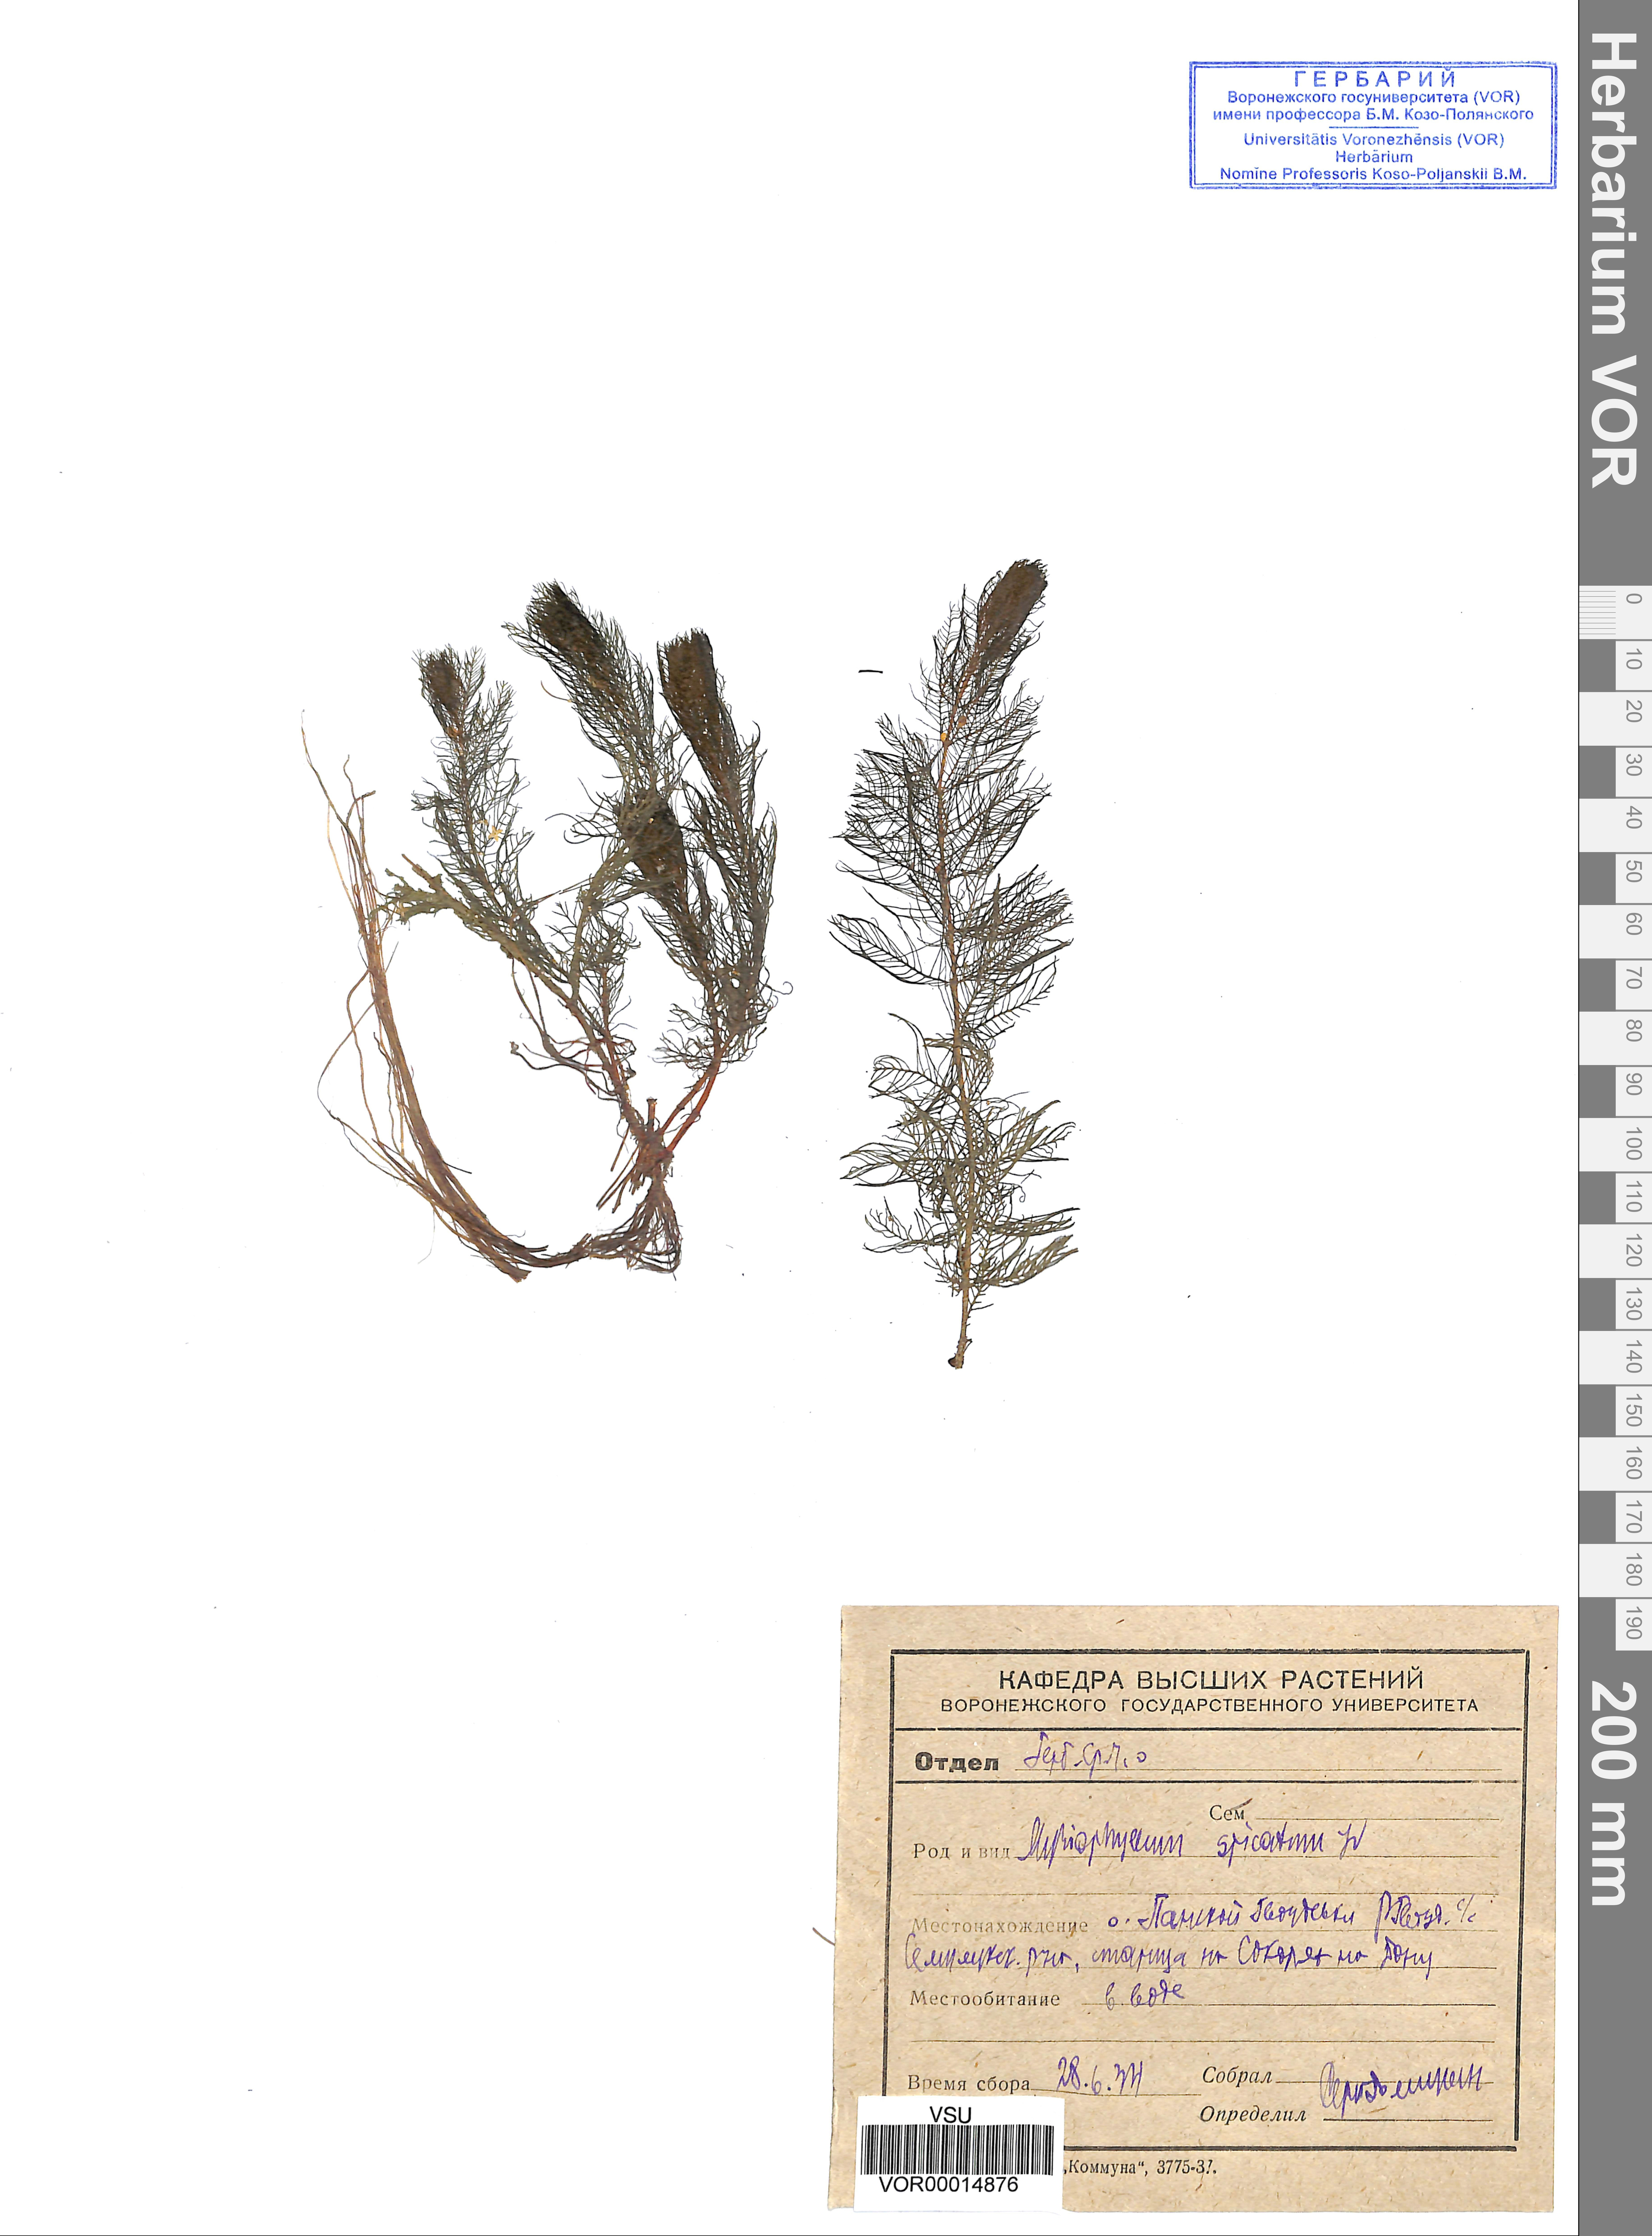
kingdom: Plantae
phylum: Tracheophyta
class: Magnoliopsida
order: Saxifragales
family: Haloragaceae
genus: Myriophyllum
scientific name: Myriophyllum spicatum
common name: Spiked water-milfoil
